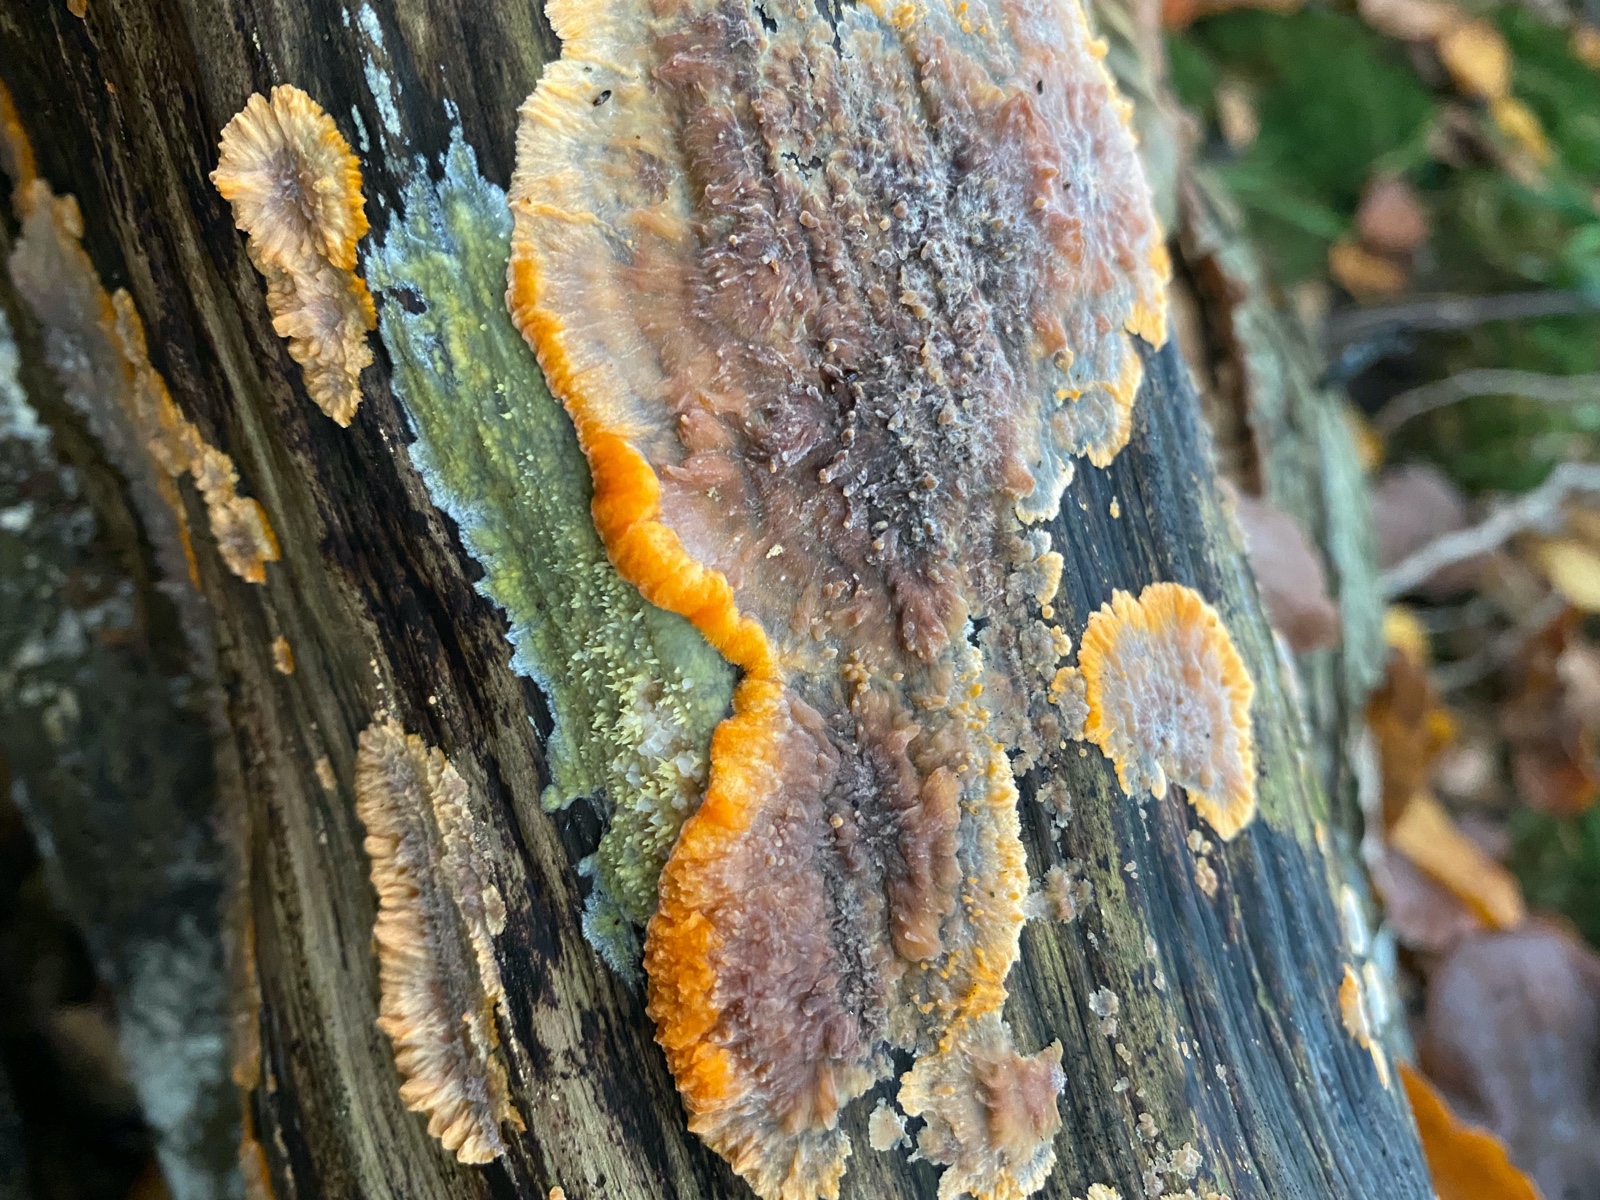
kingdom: Fungi
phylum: Basidiomycota
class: Agaricomycetes
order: Polyporales
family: Meruliaceae
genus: Phlebia
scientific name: Phlebia radiata
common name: stråle-åresvamp
